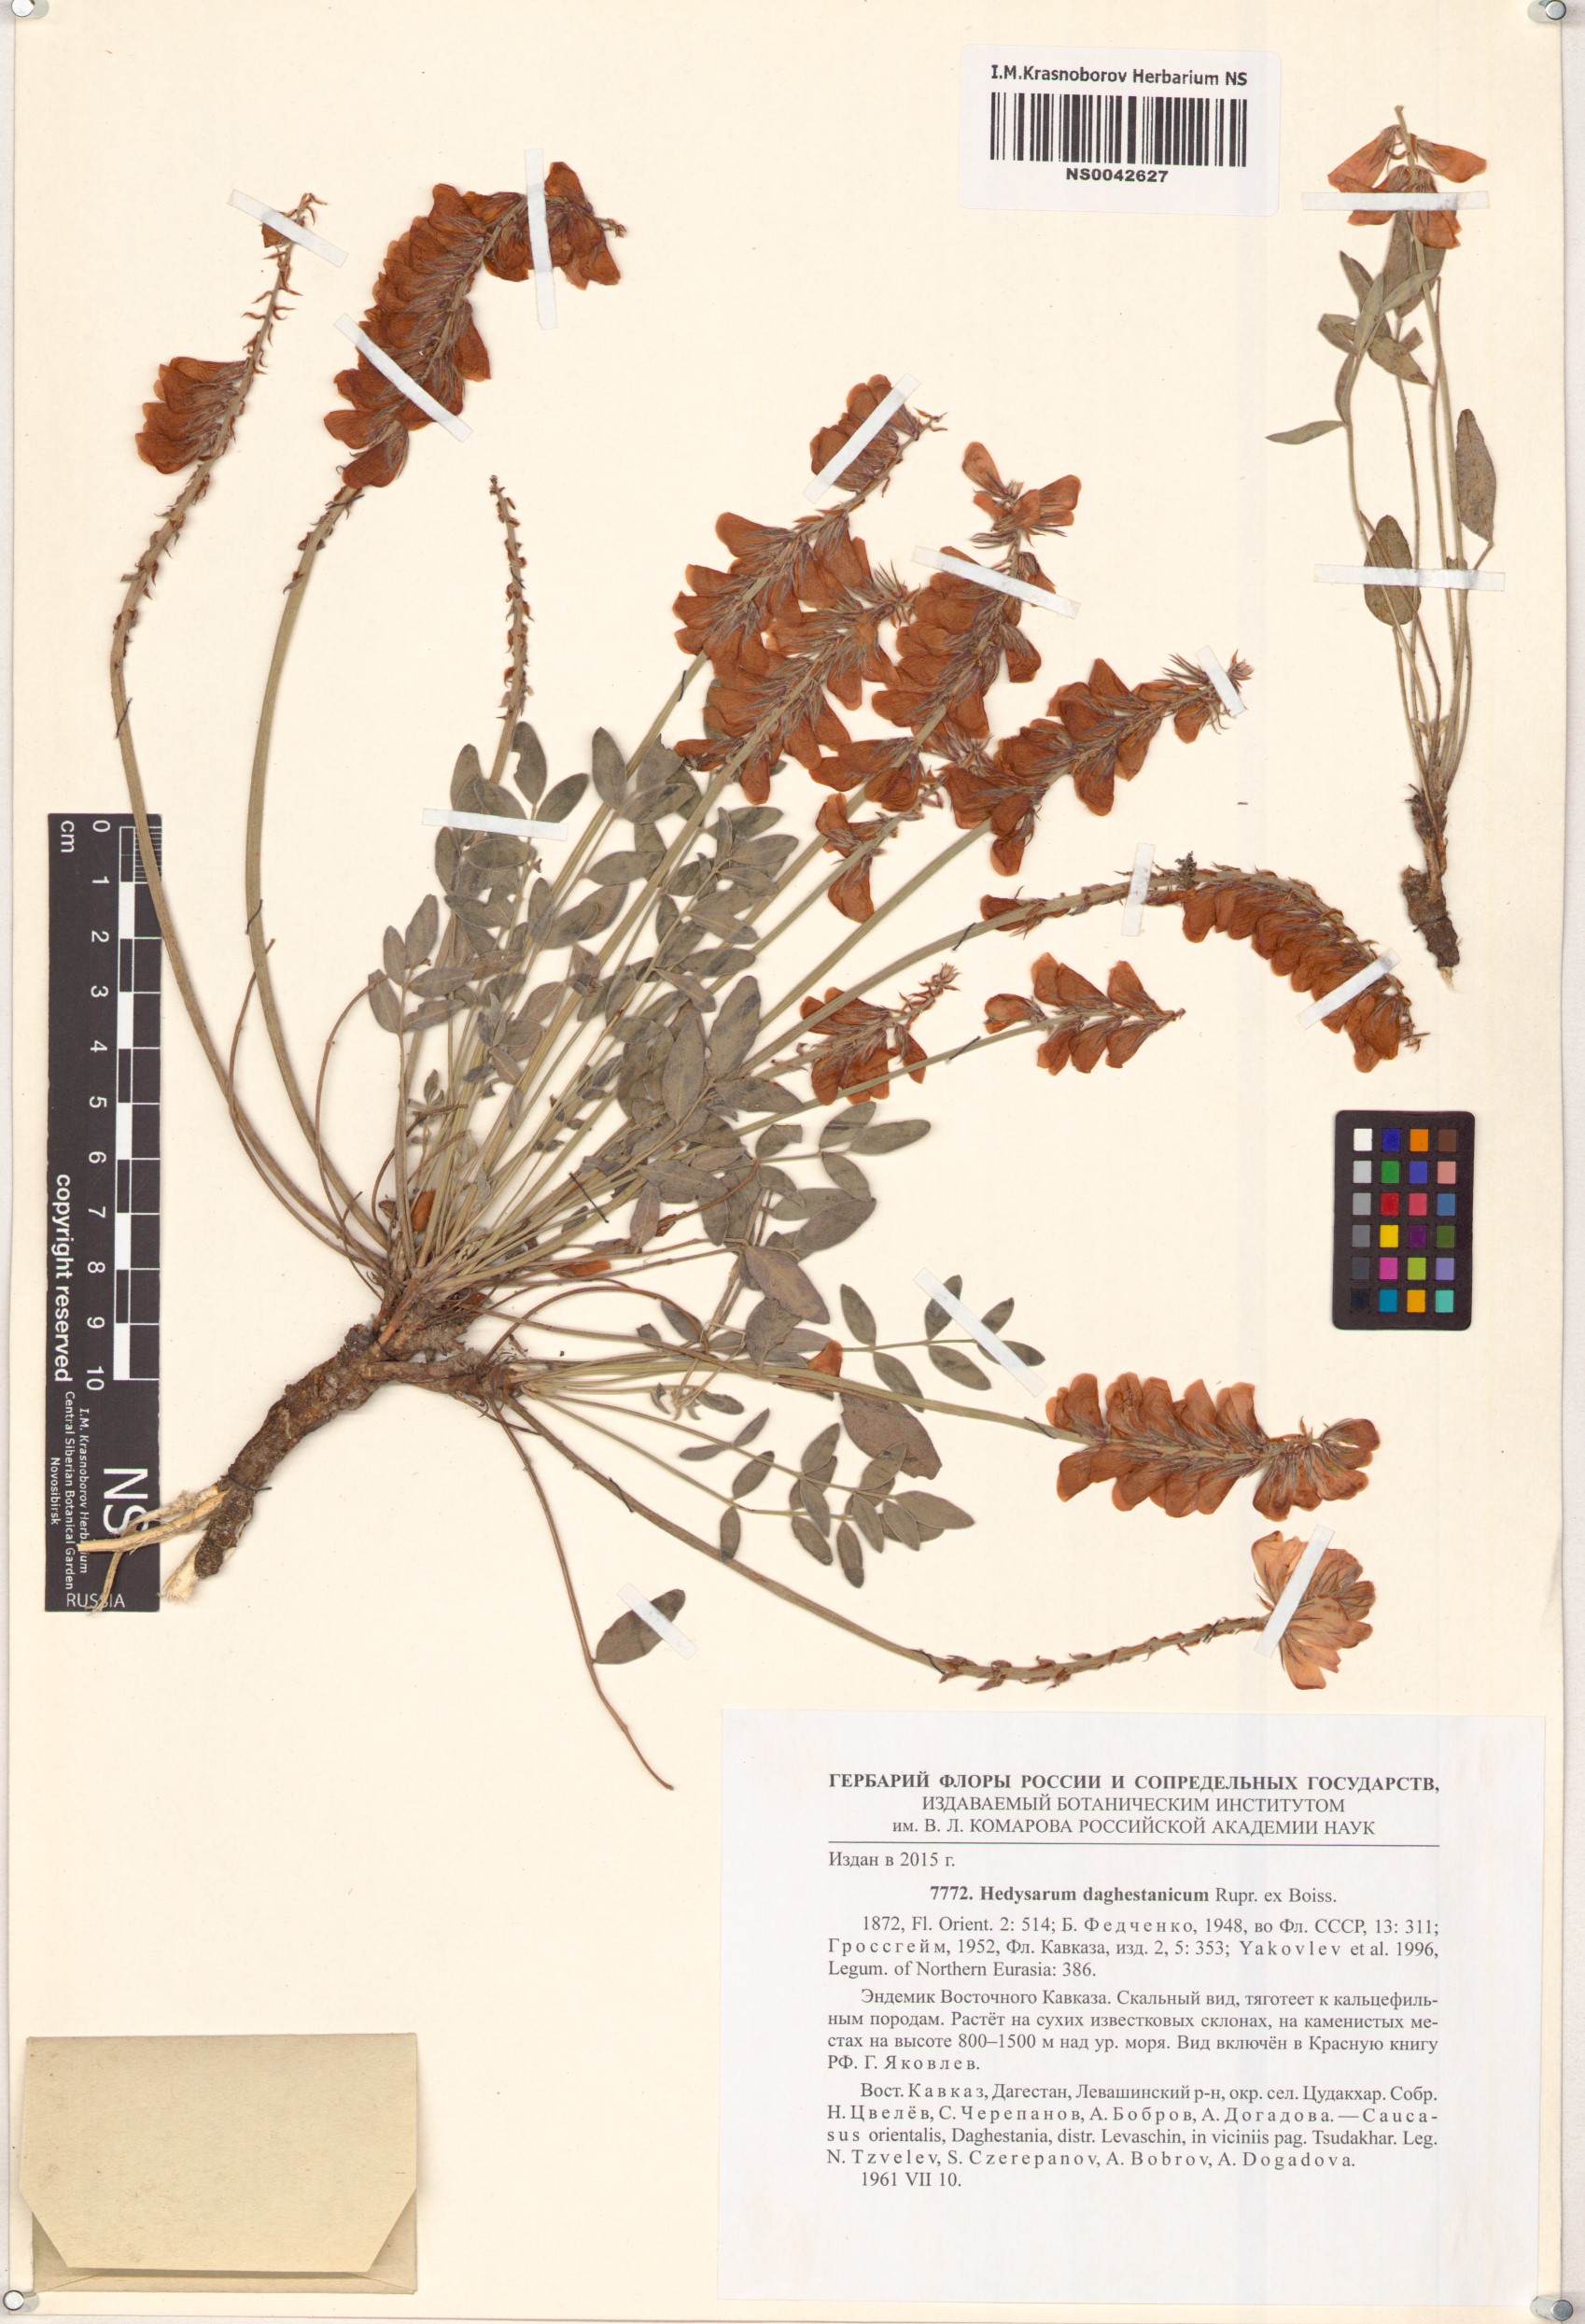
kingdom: Plantae
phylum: Tracheophyta
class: Magnoliopsida
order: Fabales
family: Fabaceae
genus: Hedysarum
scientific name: Hedysarum daghestanicum
